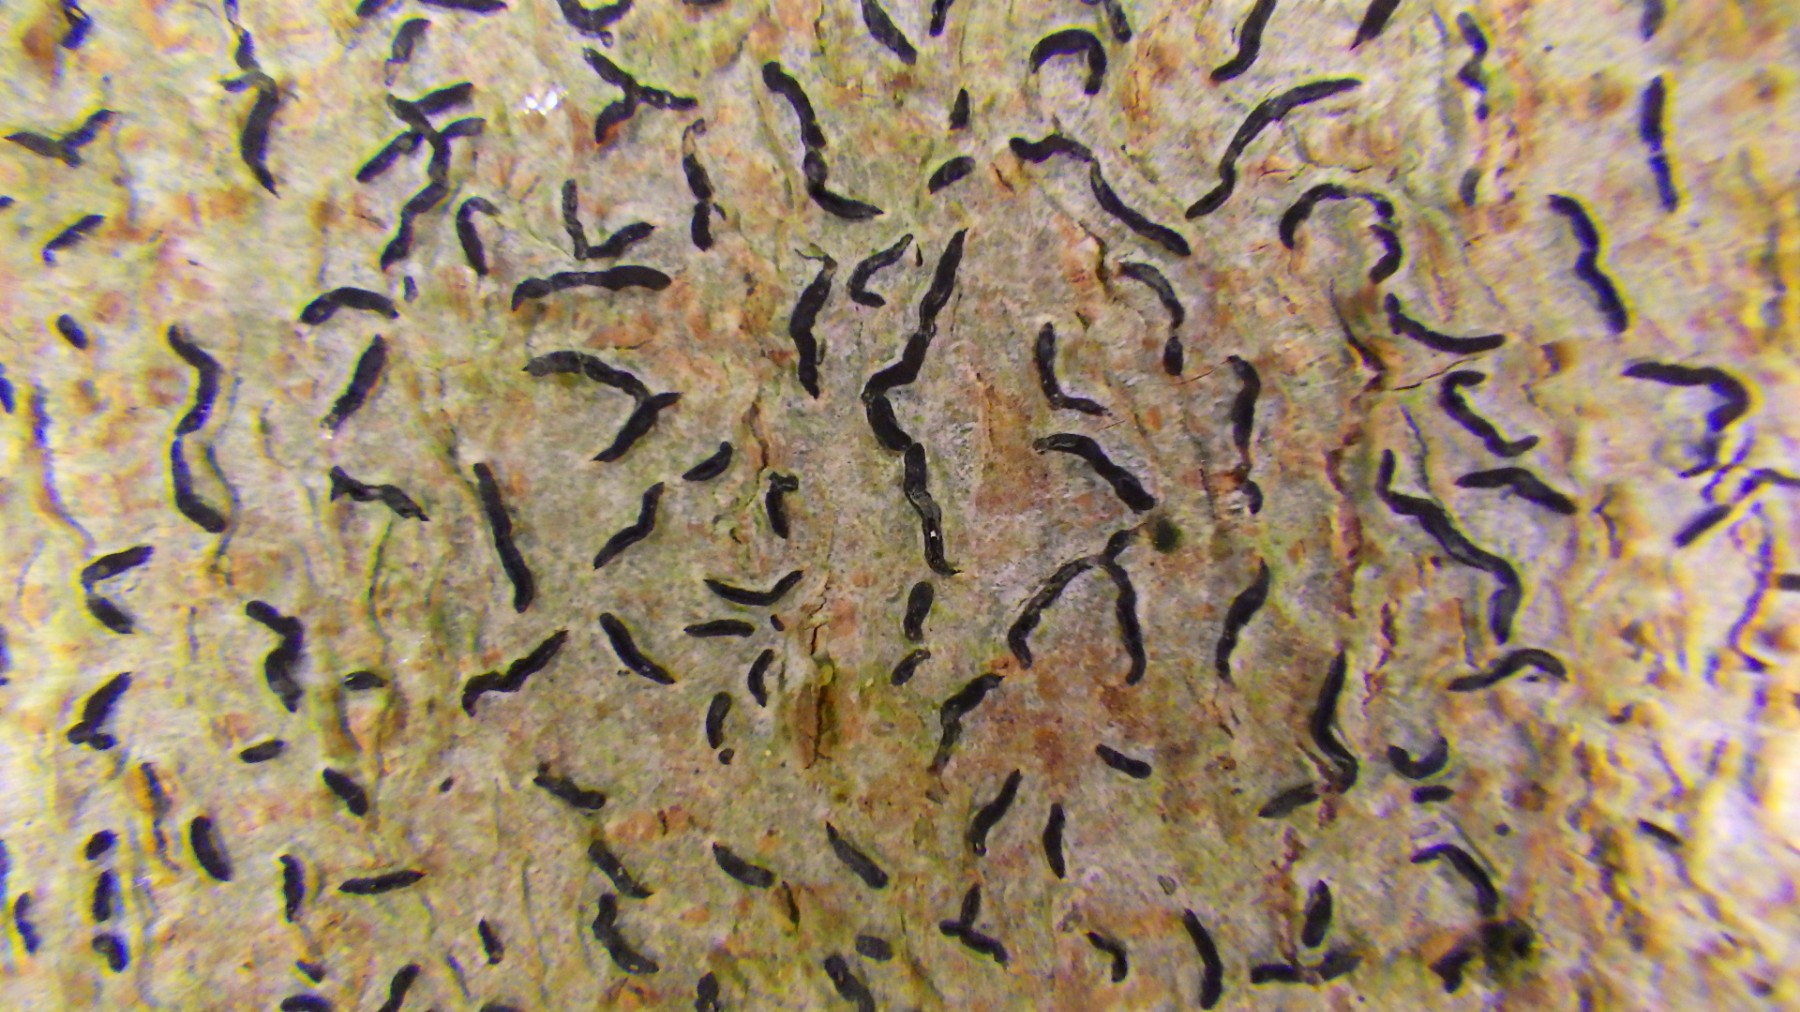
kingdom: Fungi
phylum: Ascomycota
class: Lecanoromycetes
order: Ostropales
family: Graphidaceae
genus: Graphis
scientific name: Graphis scripta
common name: almindelig skriftlav
